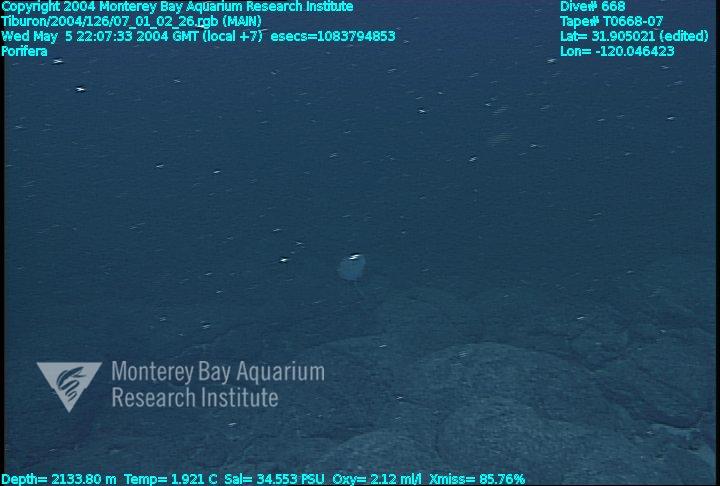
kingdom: Animalia
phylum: Porifera
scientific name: Porifera
